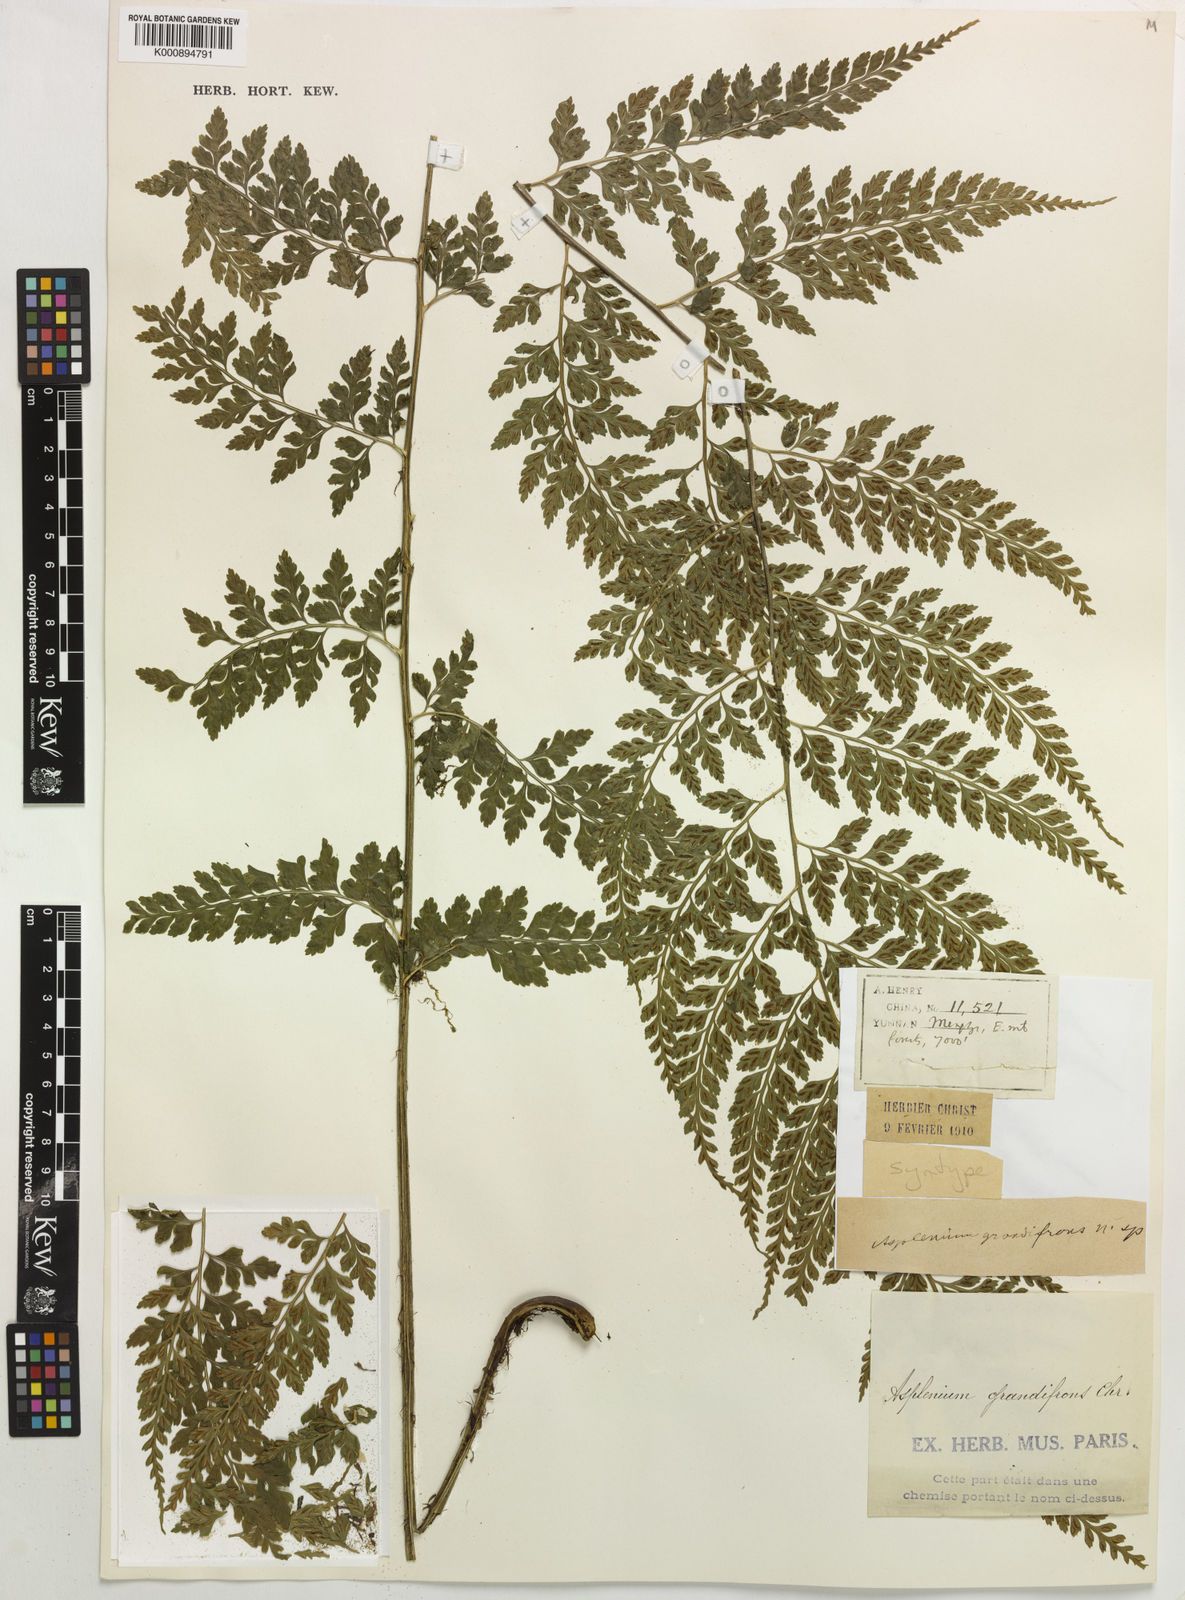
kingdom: Plantae
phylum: Tracheophyta
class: Polypodiopsida
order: Polypodiales
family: Aspleniaceae
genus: Asplenium
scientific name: Asplenium bullatum
